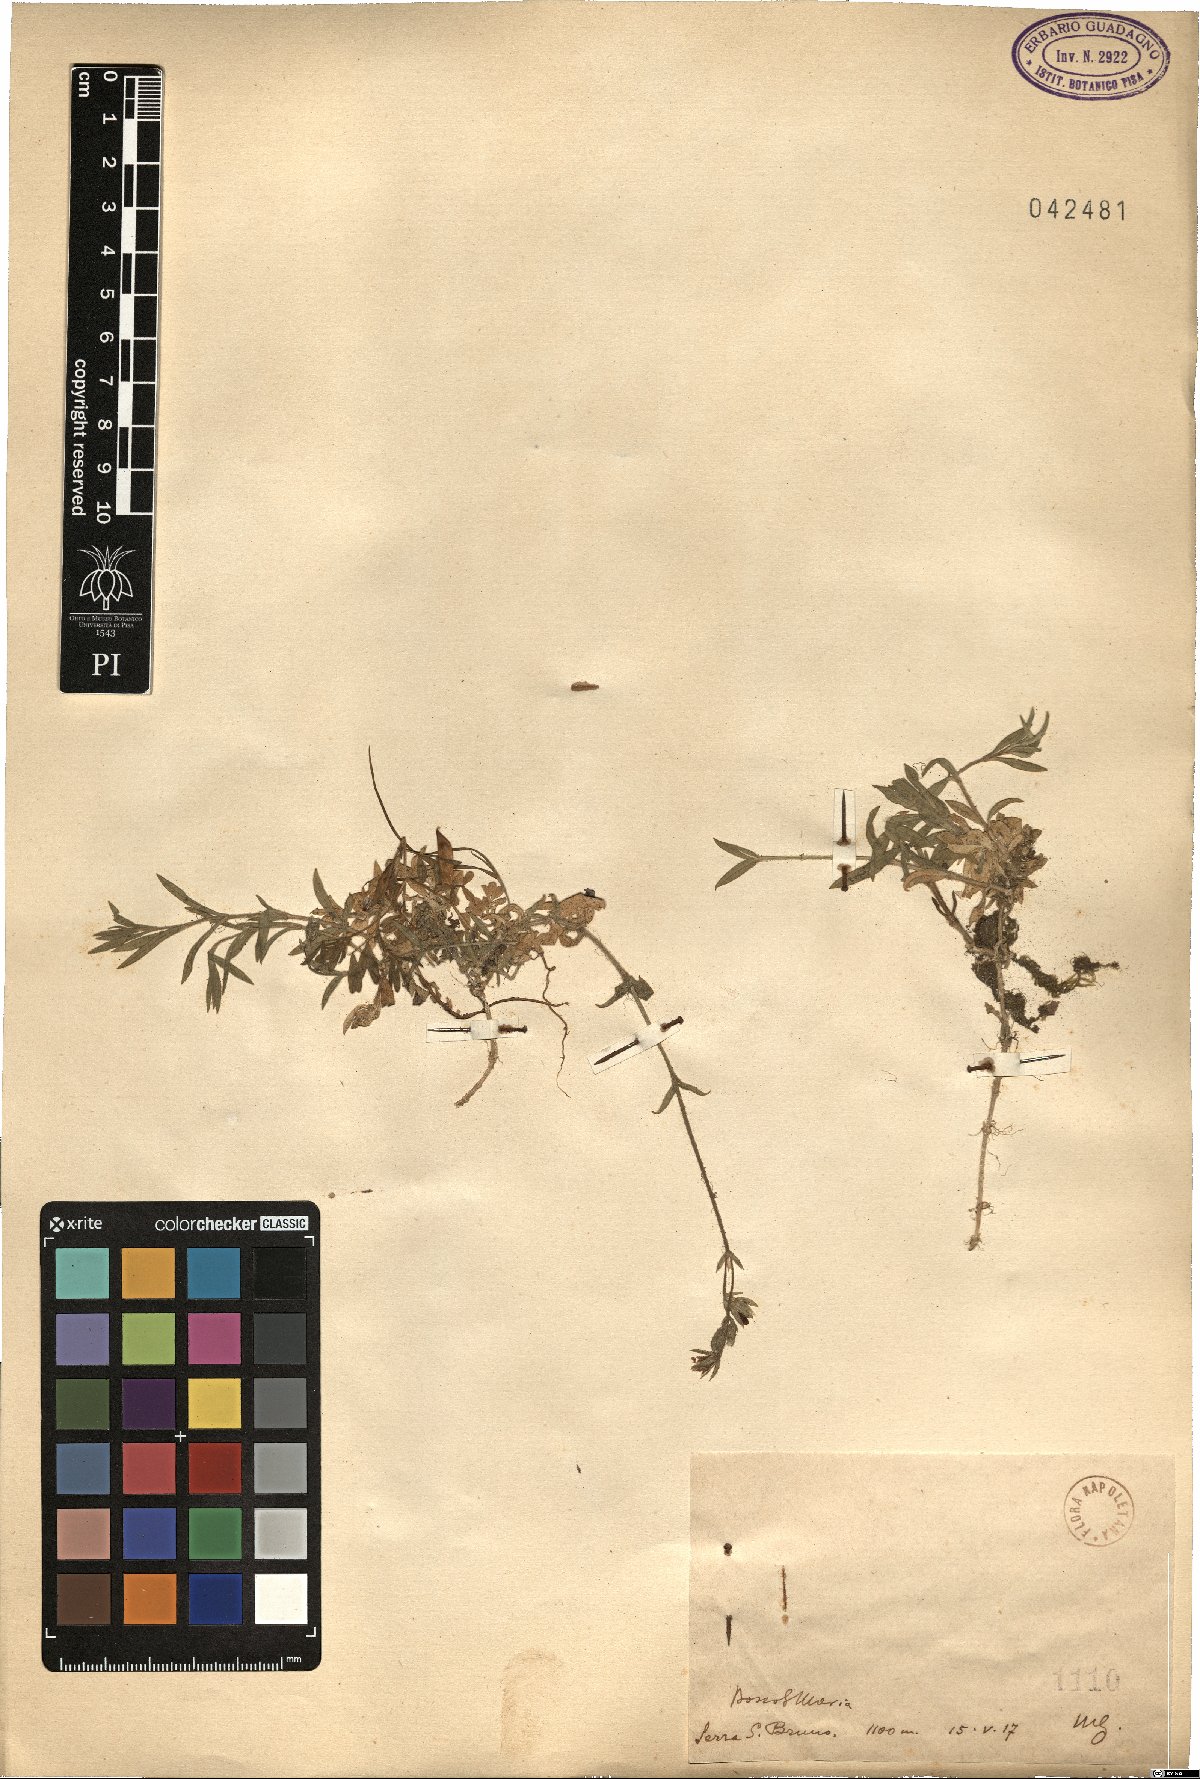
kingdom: Plantae
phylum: Tracheophyta
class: Magnoliopsida
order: Caryophyllales
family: Caryophyllaceae
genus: Cerastium
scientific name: Cerastium
